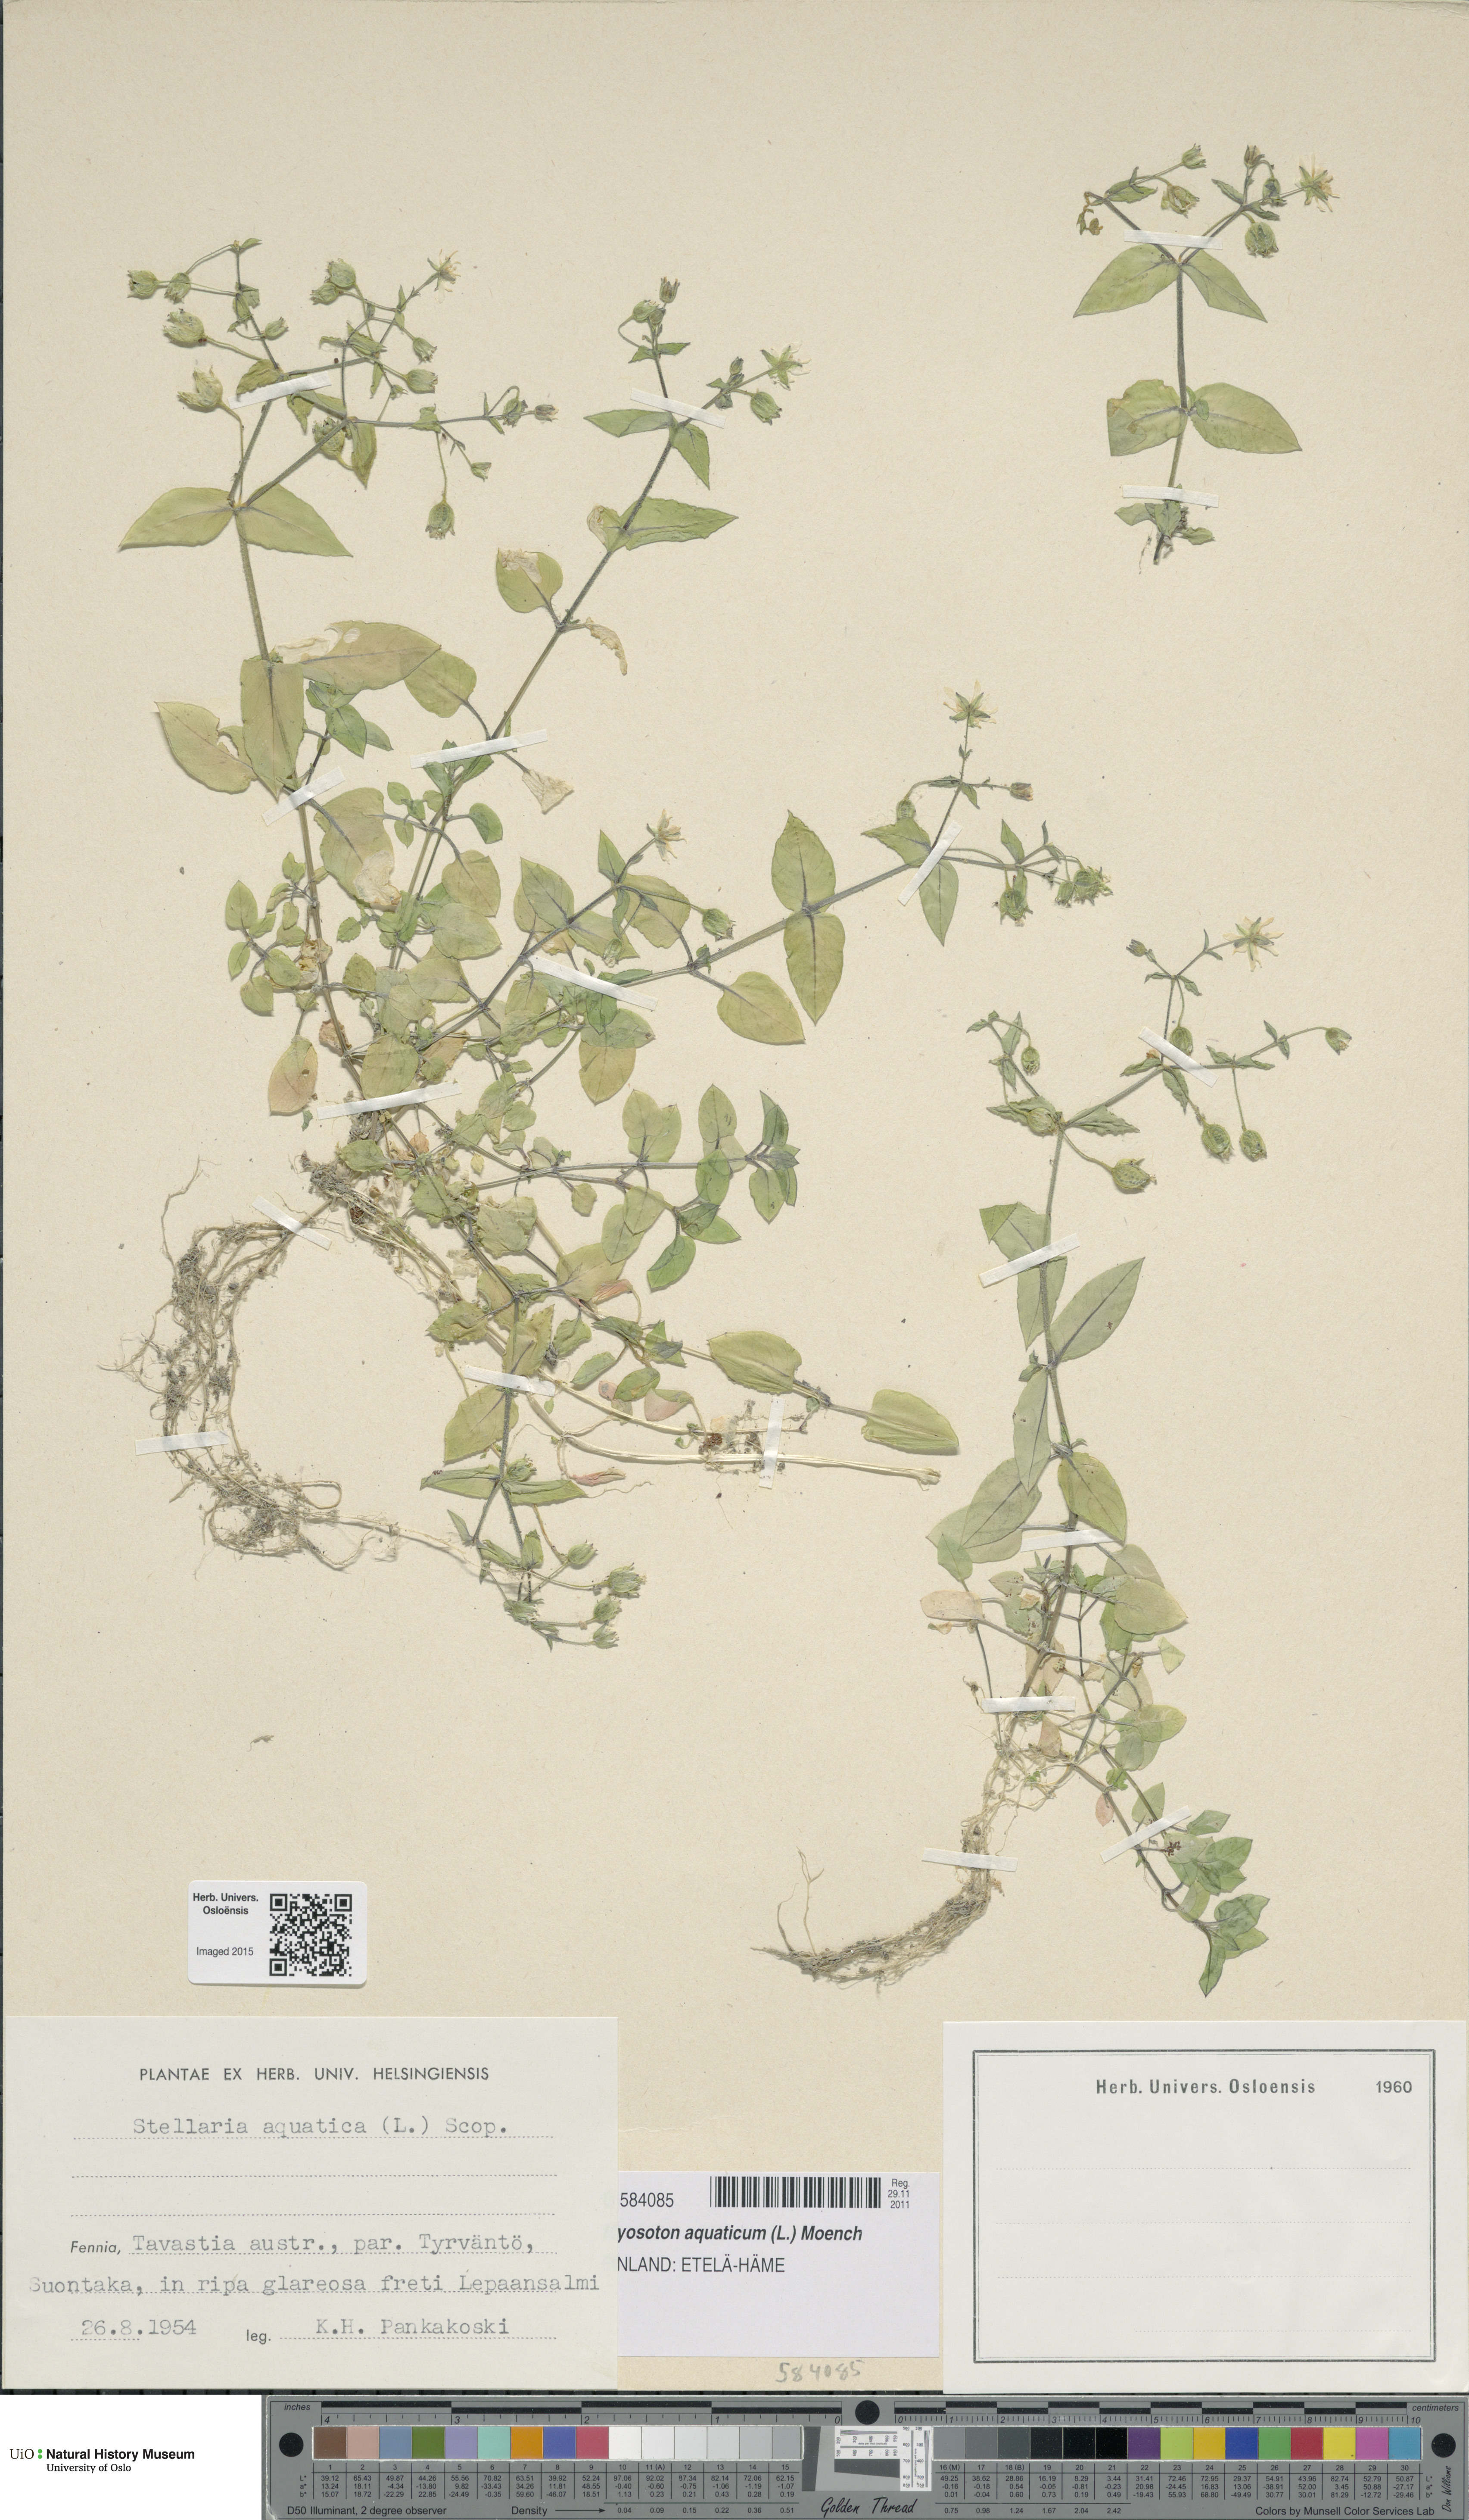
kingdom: Plantae
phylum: Tracheophyta
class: Magnoliopsida
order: Caryophyllales
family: Caryophyllaceae
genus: Stellaria
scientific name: Stellaria aquatica
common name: Water chickweed
